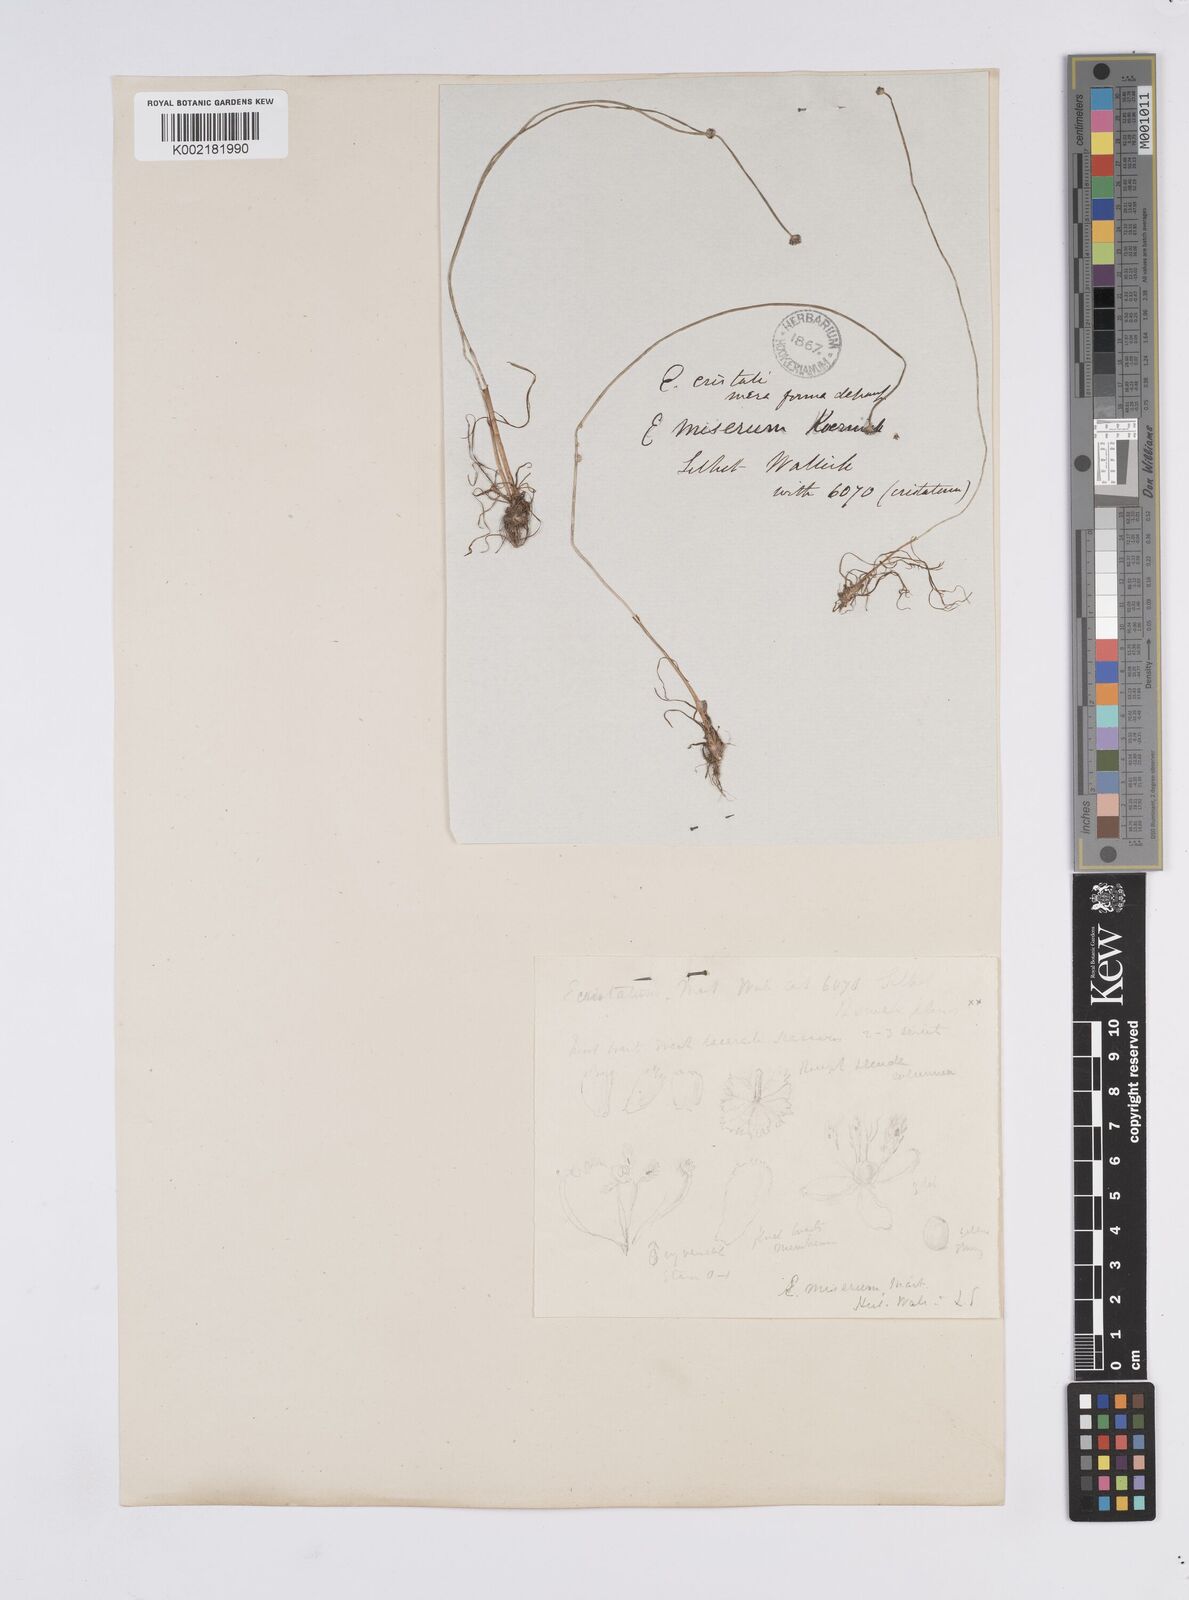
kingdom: Plantae
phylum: Tracheophyta
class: Liliopsida
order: Poales
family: Eriocaulaceae
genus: Eriocaulon
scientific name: Eriocaulon miserum
